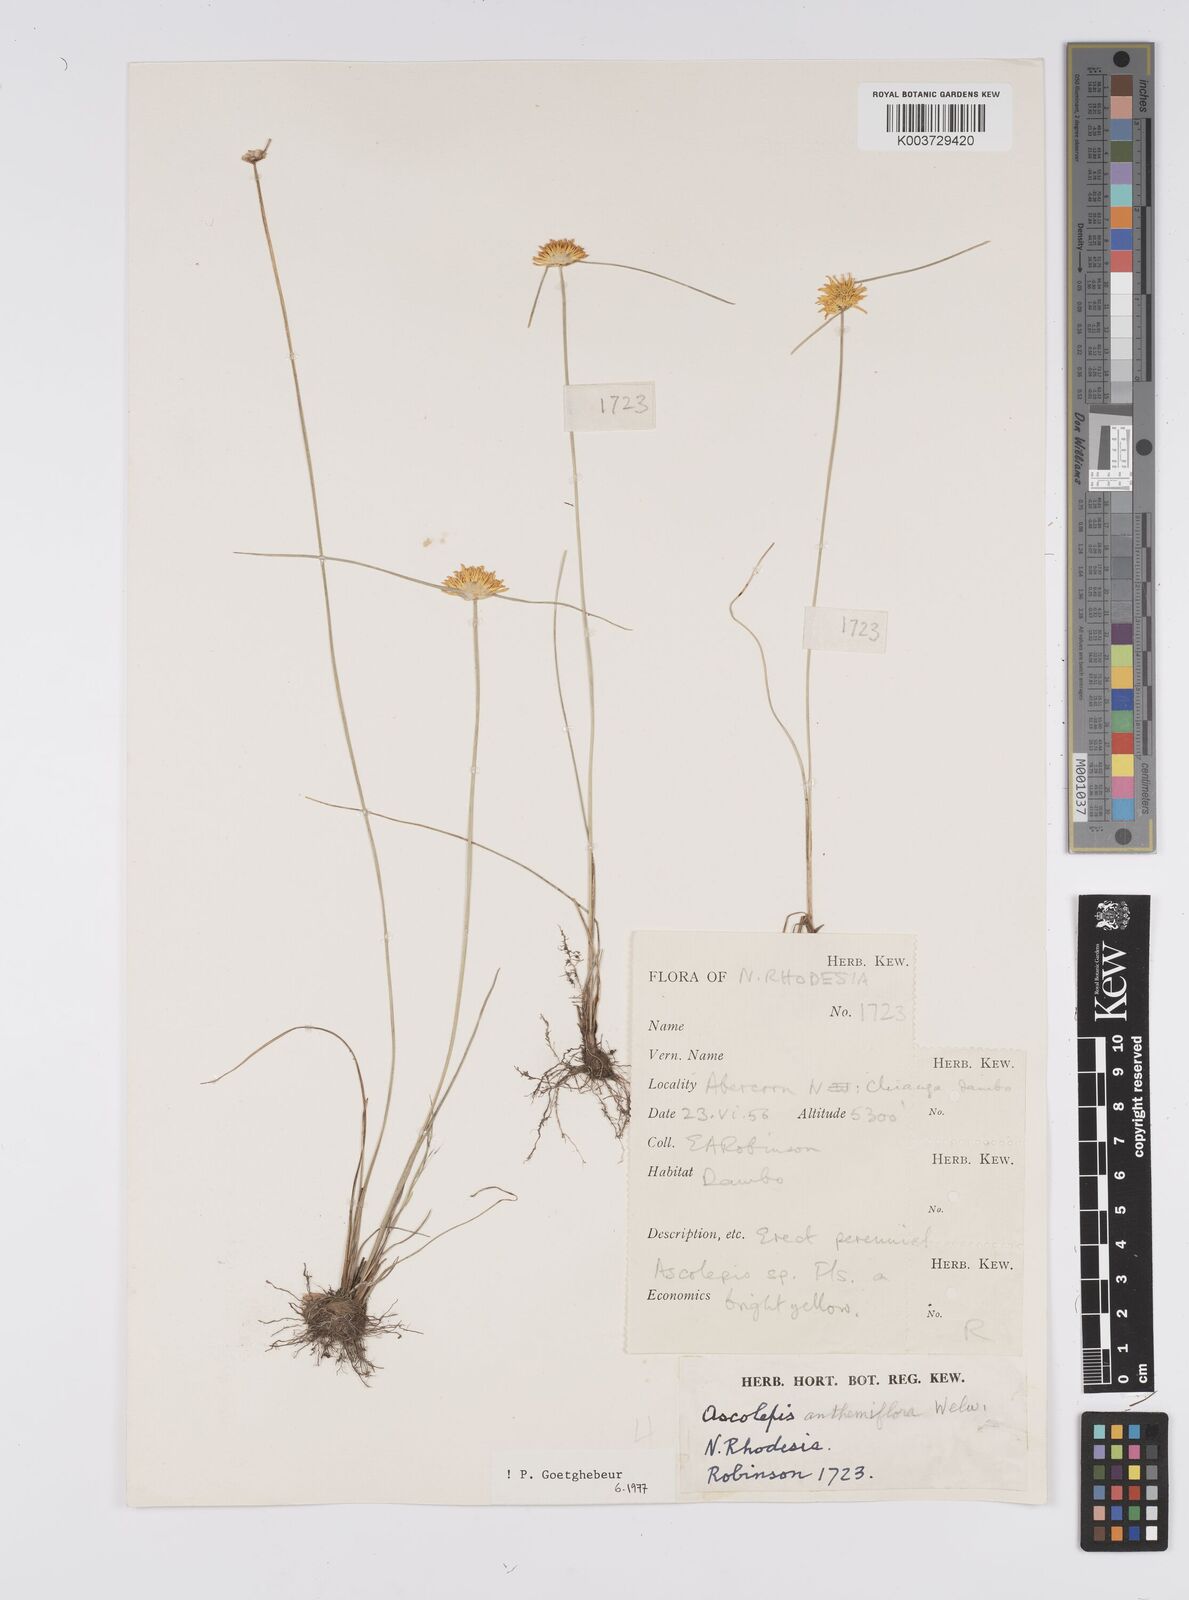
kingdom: Plantae
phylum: Tracheophyta
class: Liliopsida
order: Poales
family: Cyperaceae
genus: Cyperus
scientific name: Cyperus
